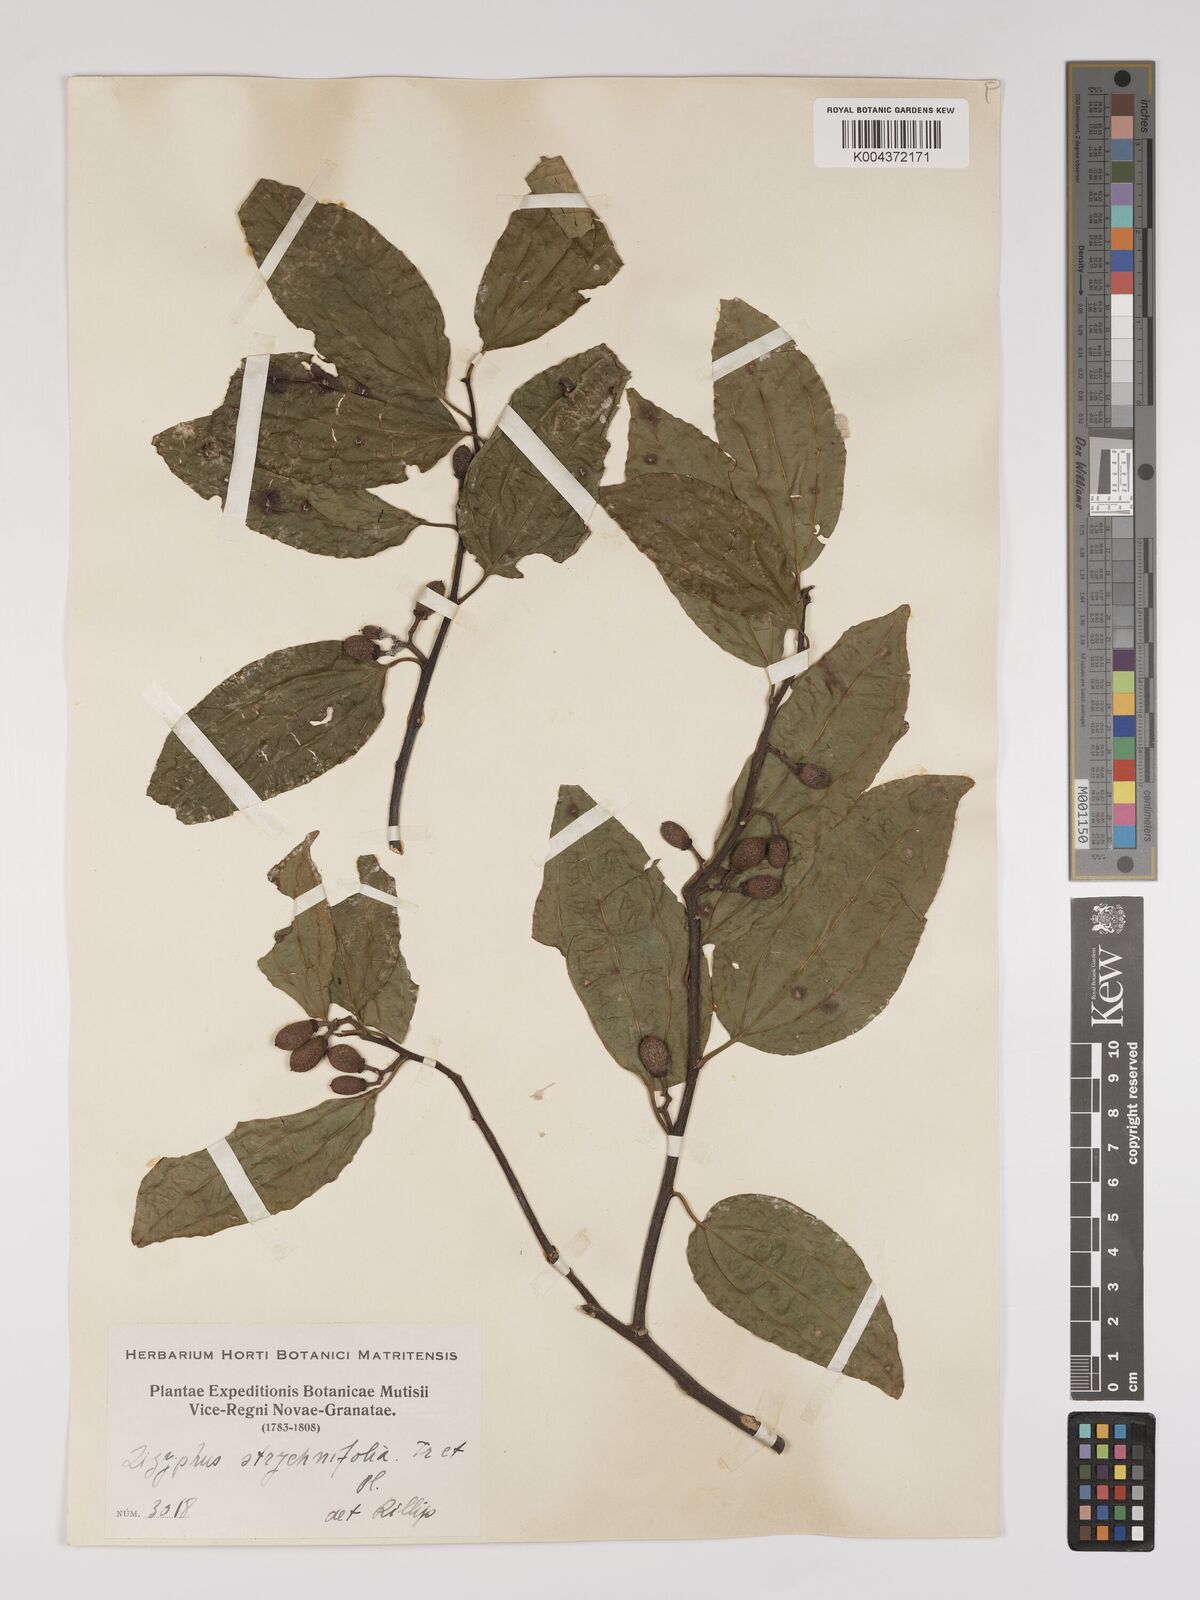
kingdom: Plantae
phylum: Tracheophyta
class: Magnoliopsida
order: Rosales
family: Rhamnaceae
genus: Sarcomphalus
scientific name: Sarcomphalus strychnifolius
